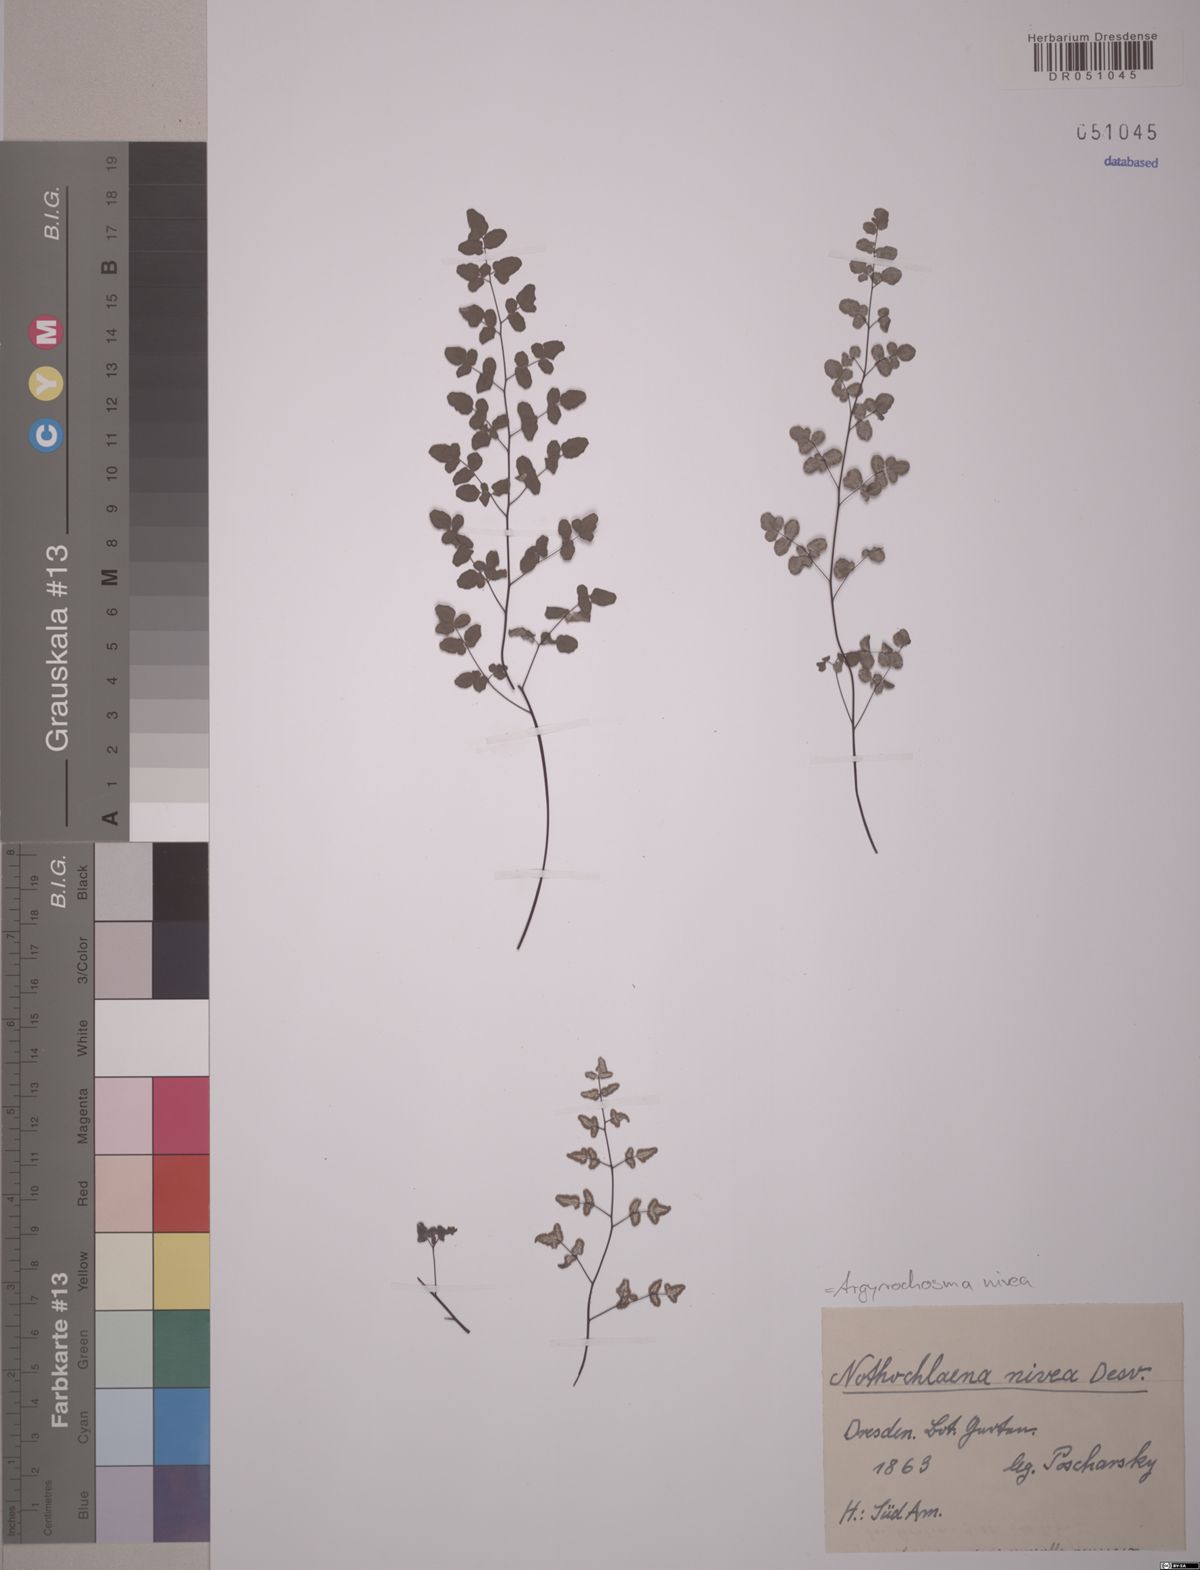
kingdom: Plantae
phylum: Tracheophyta
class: Polypodiopsida
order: Polypodiales
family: Pteridaceae
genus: Argyrochosma
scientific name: Argyrochosma nivea
